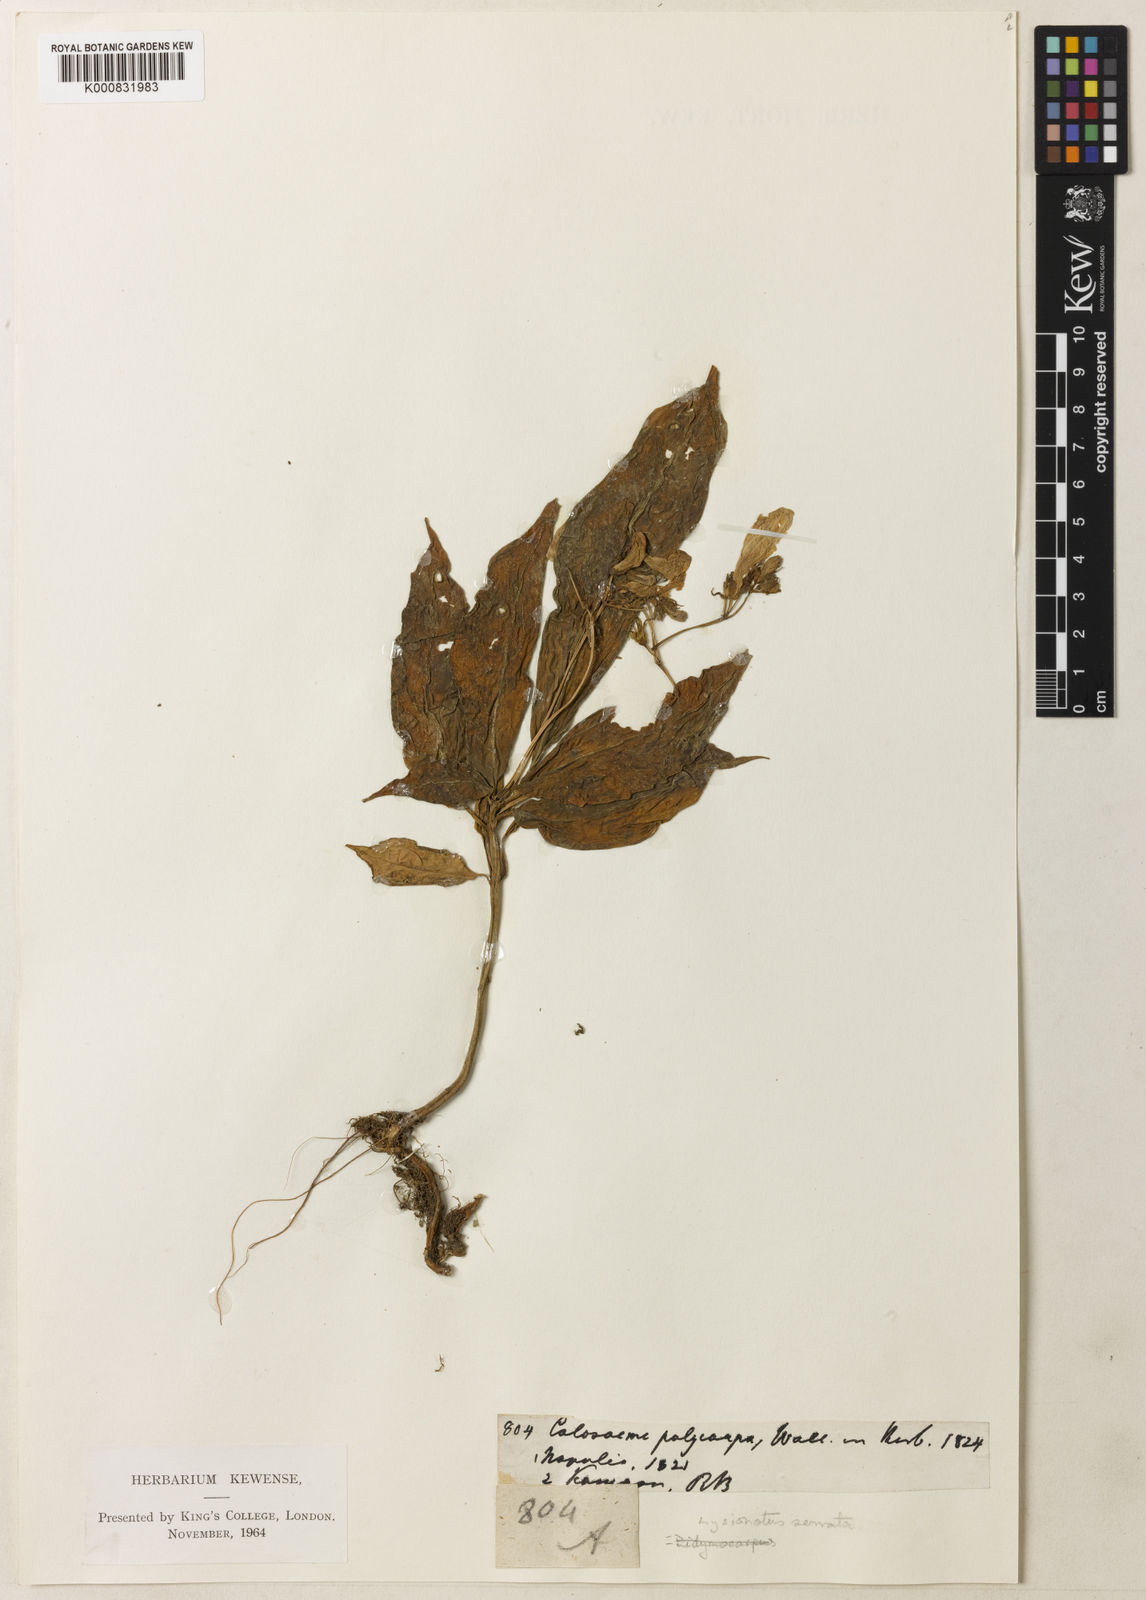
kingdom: Plantae
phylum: Tracheophyta
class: Magnoliopsida
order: Lamiales
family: Gesneriaceae
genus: Lysionotus
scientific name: Lysionotus serratus
